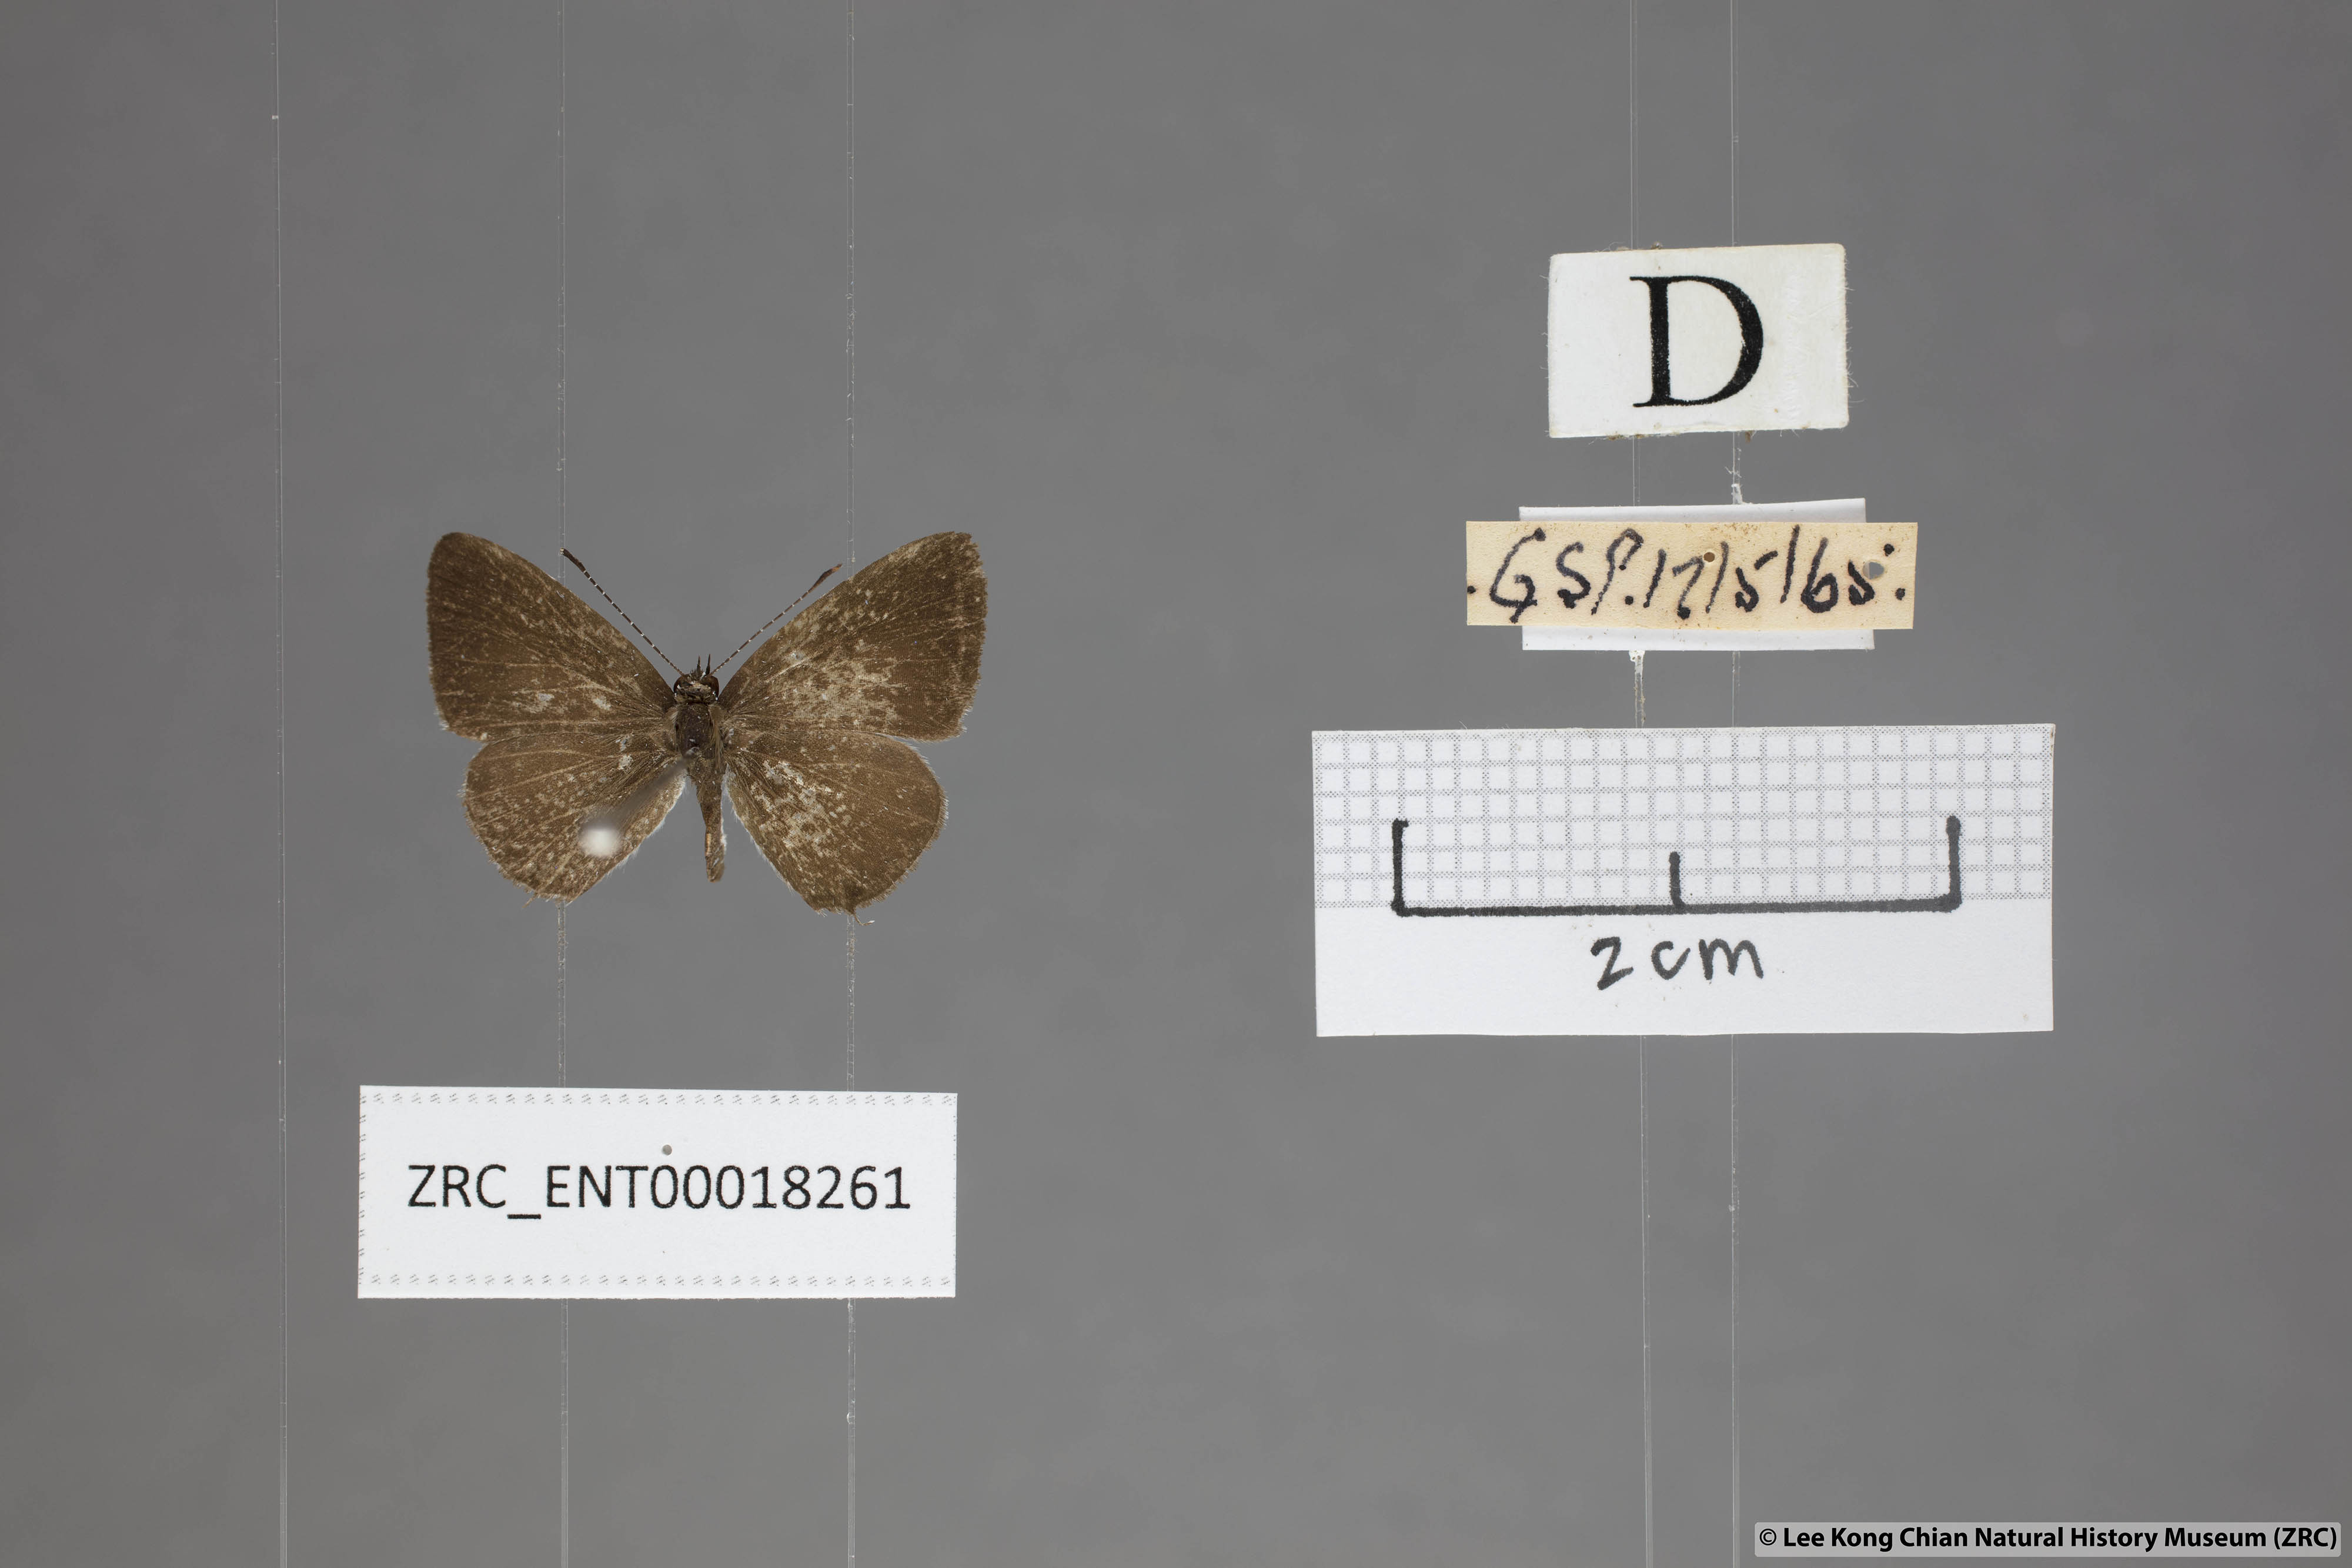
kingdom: Animalia
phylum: Arthropoda
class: Insecta
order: Lepidoptera
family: Lycaenidae
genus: Megisba
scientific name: Megisba malaya
